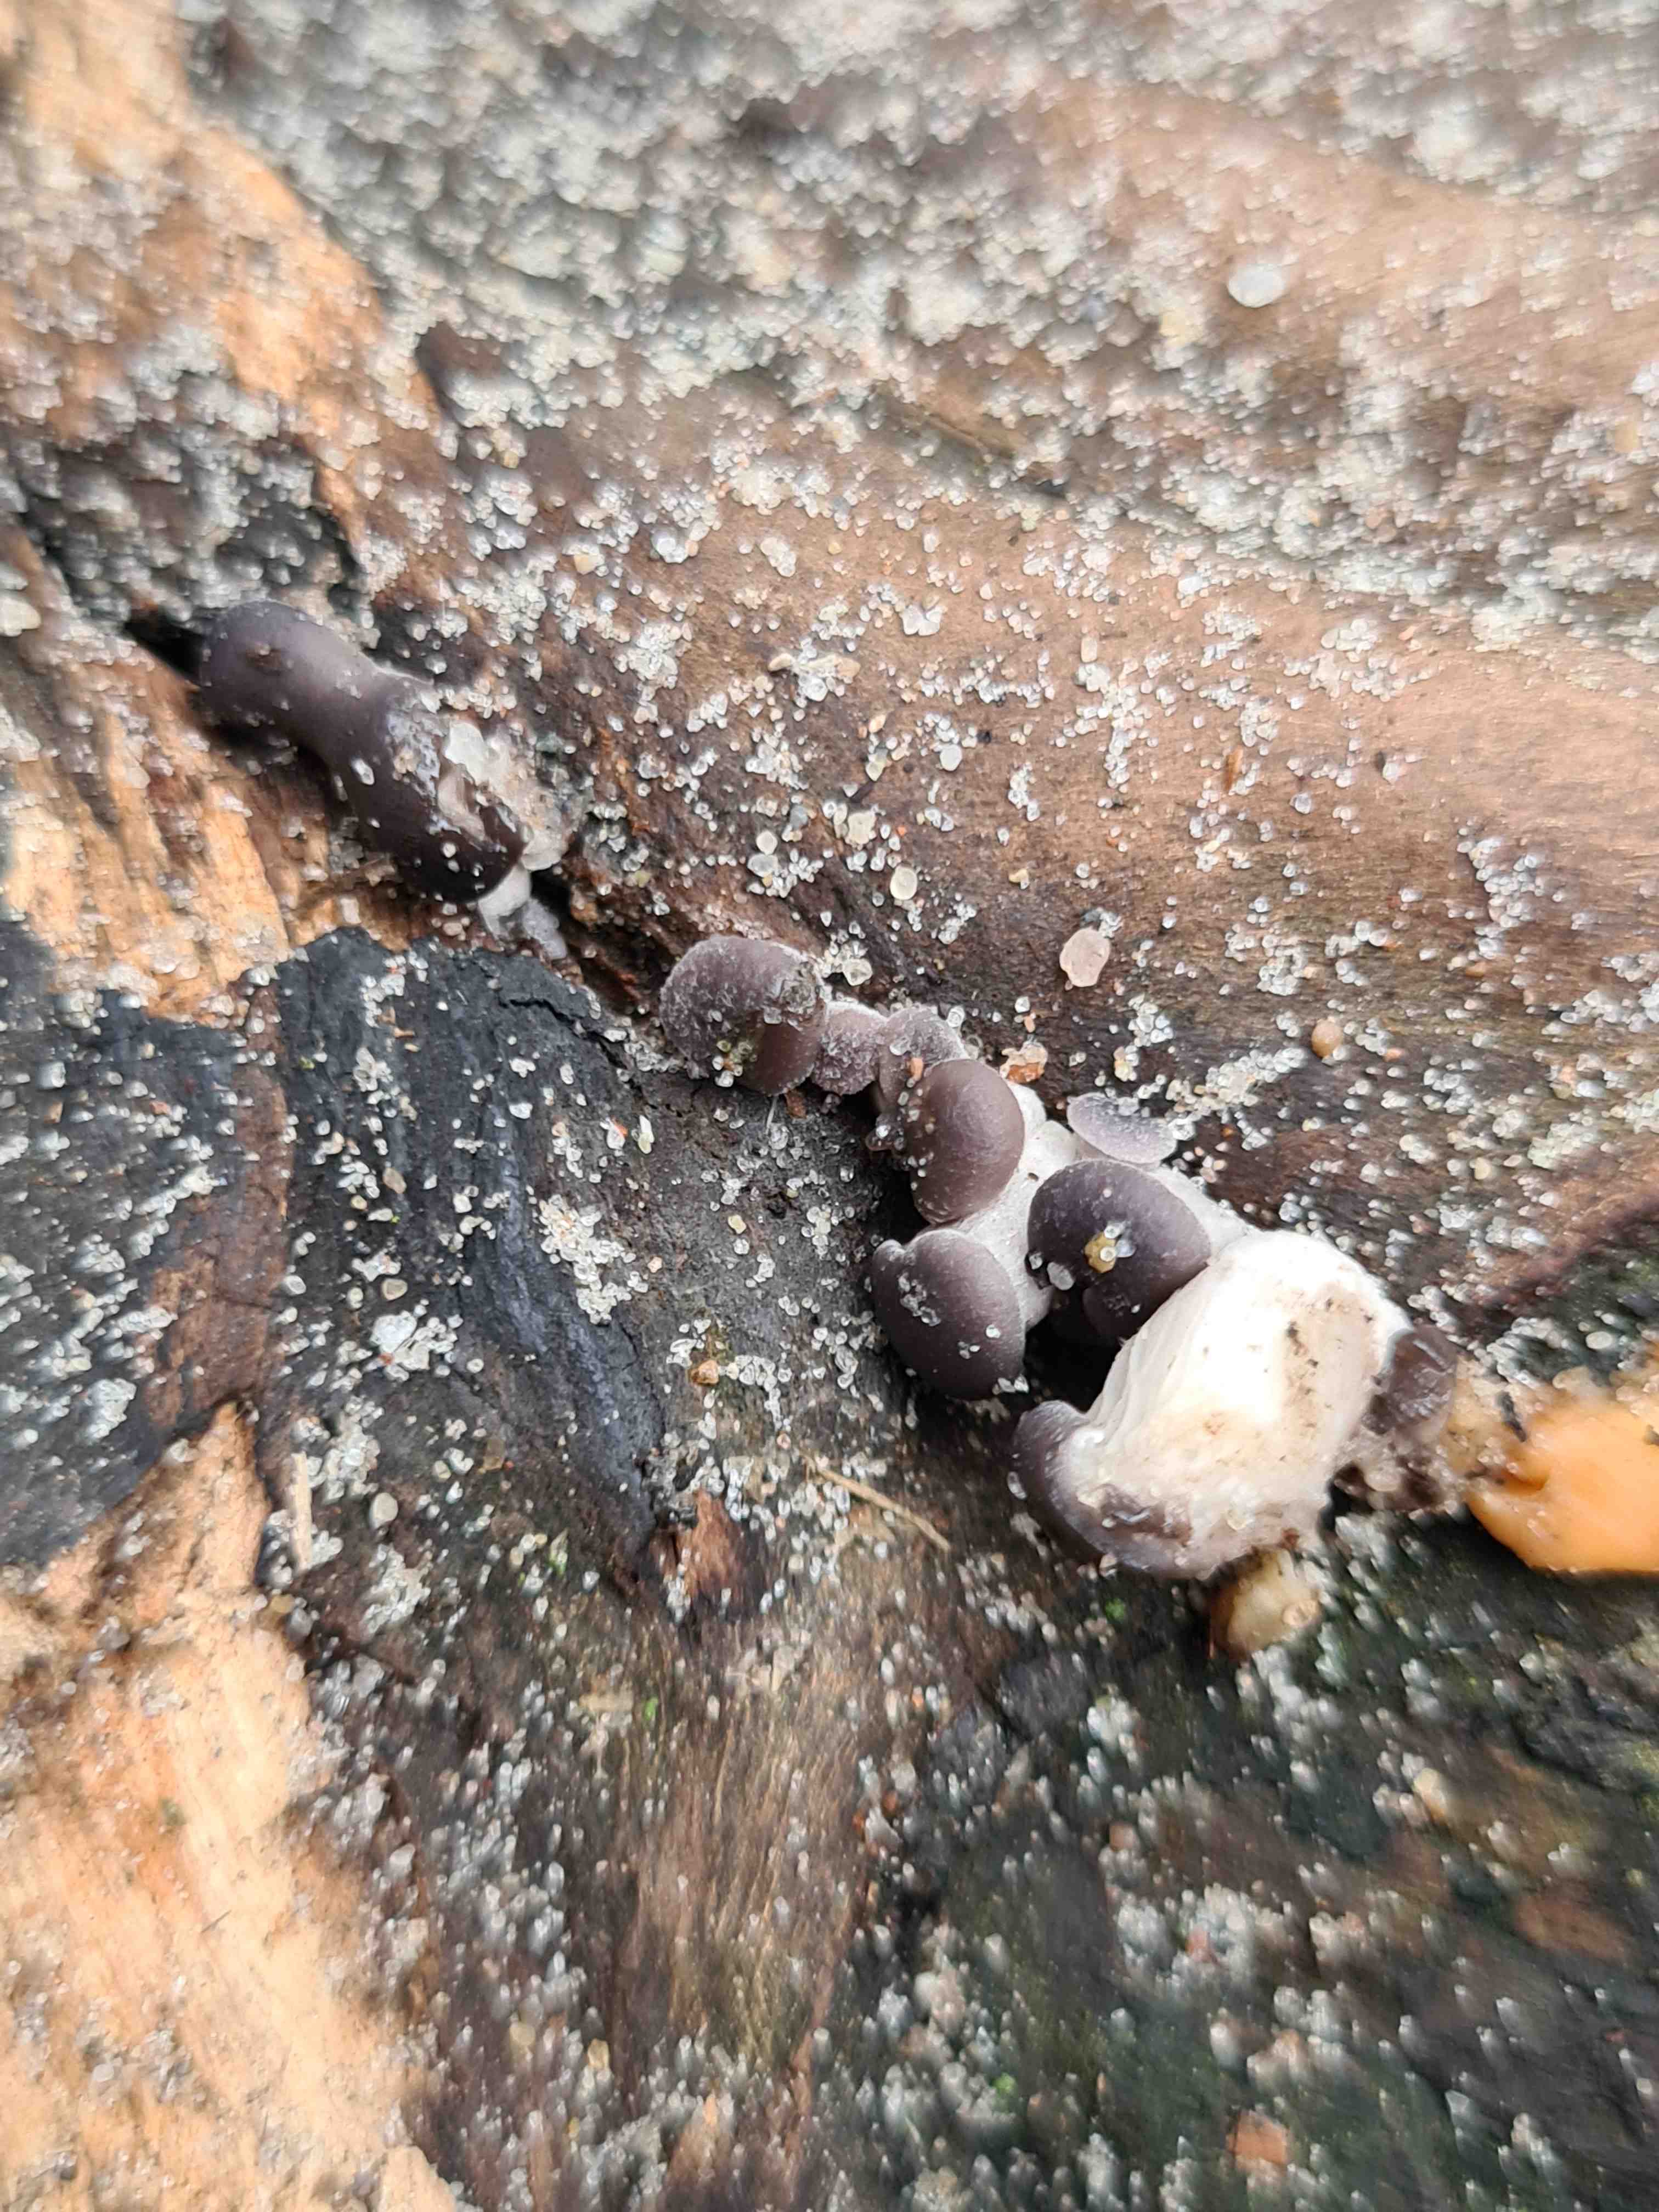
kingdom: Fungi
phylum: Basidiomycota
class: Agaricomycetes
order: Agaricales
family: Pleurotaceae
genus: Pleurotus
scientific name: Pleurotus ostreatus
